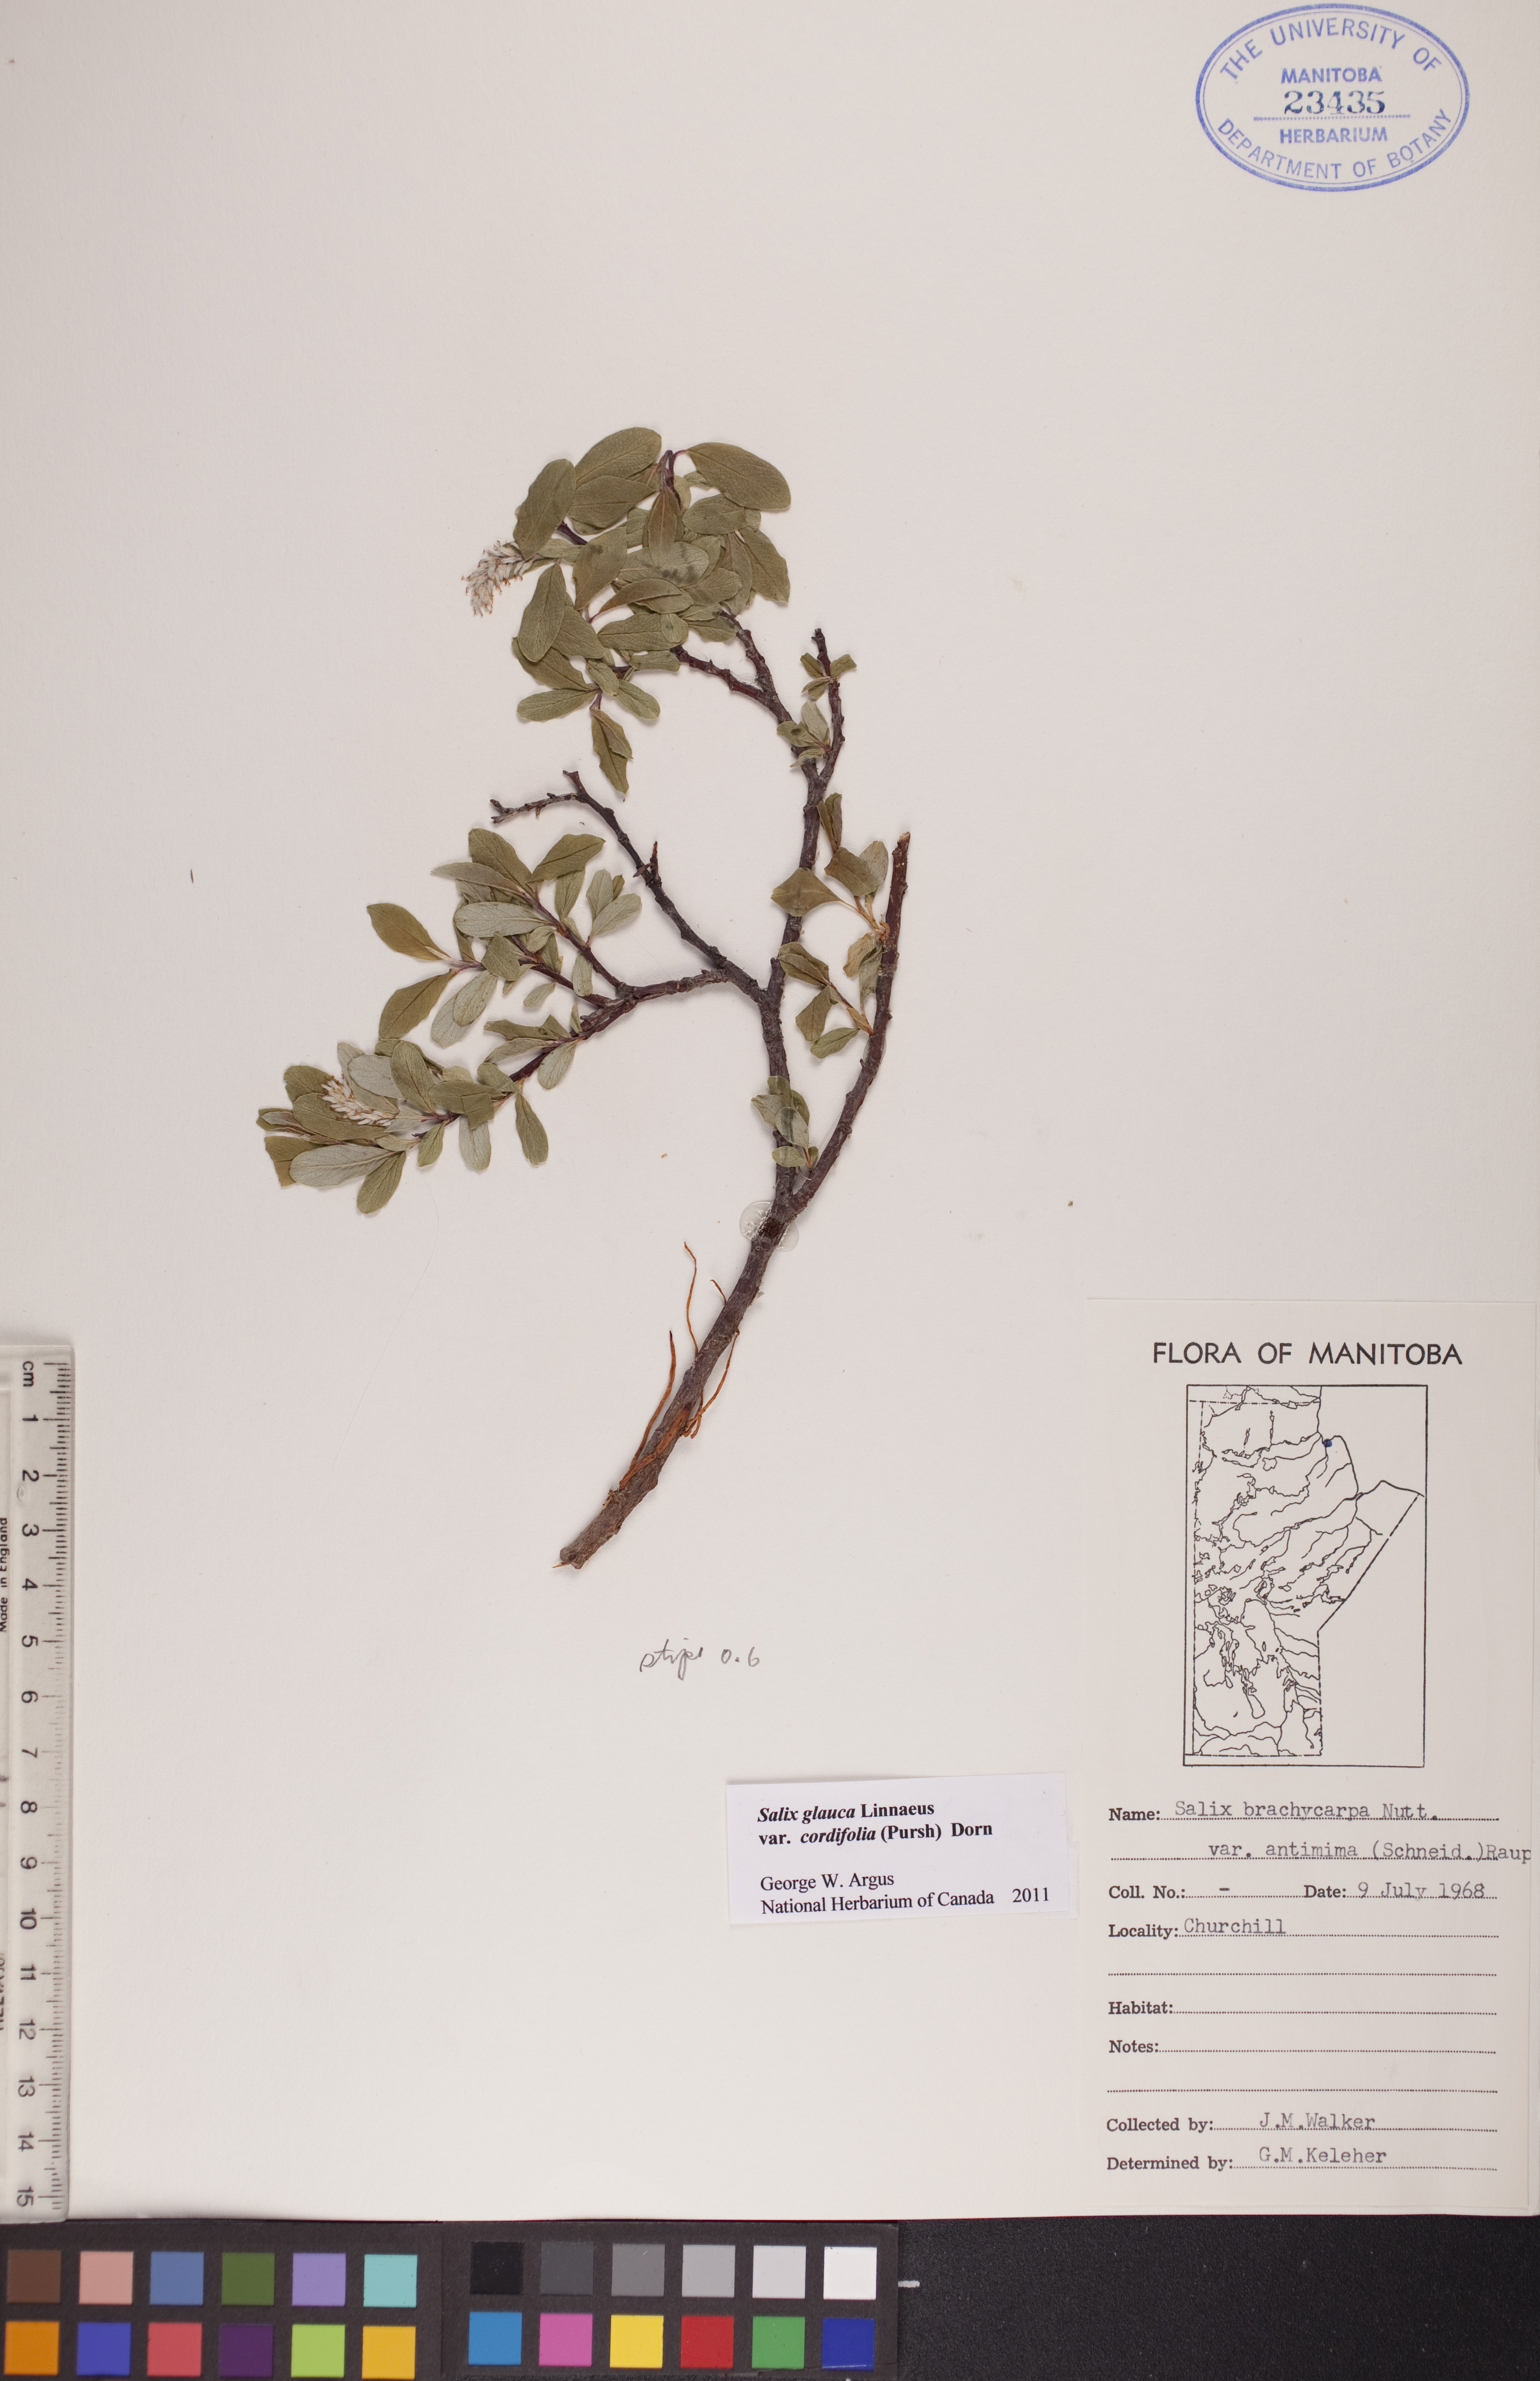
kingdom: Plantae
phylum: Tracheophyta
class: Magnoliopsida
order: Malpighiales
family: Salicaceae
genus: Salix
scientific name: Salix glauca
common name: Glaucous willow
